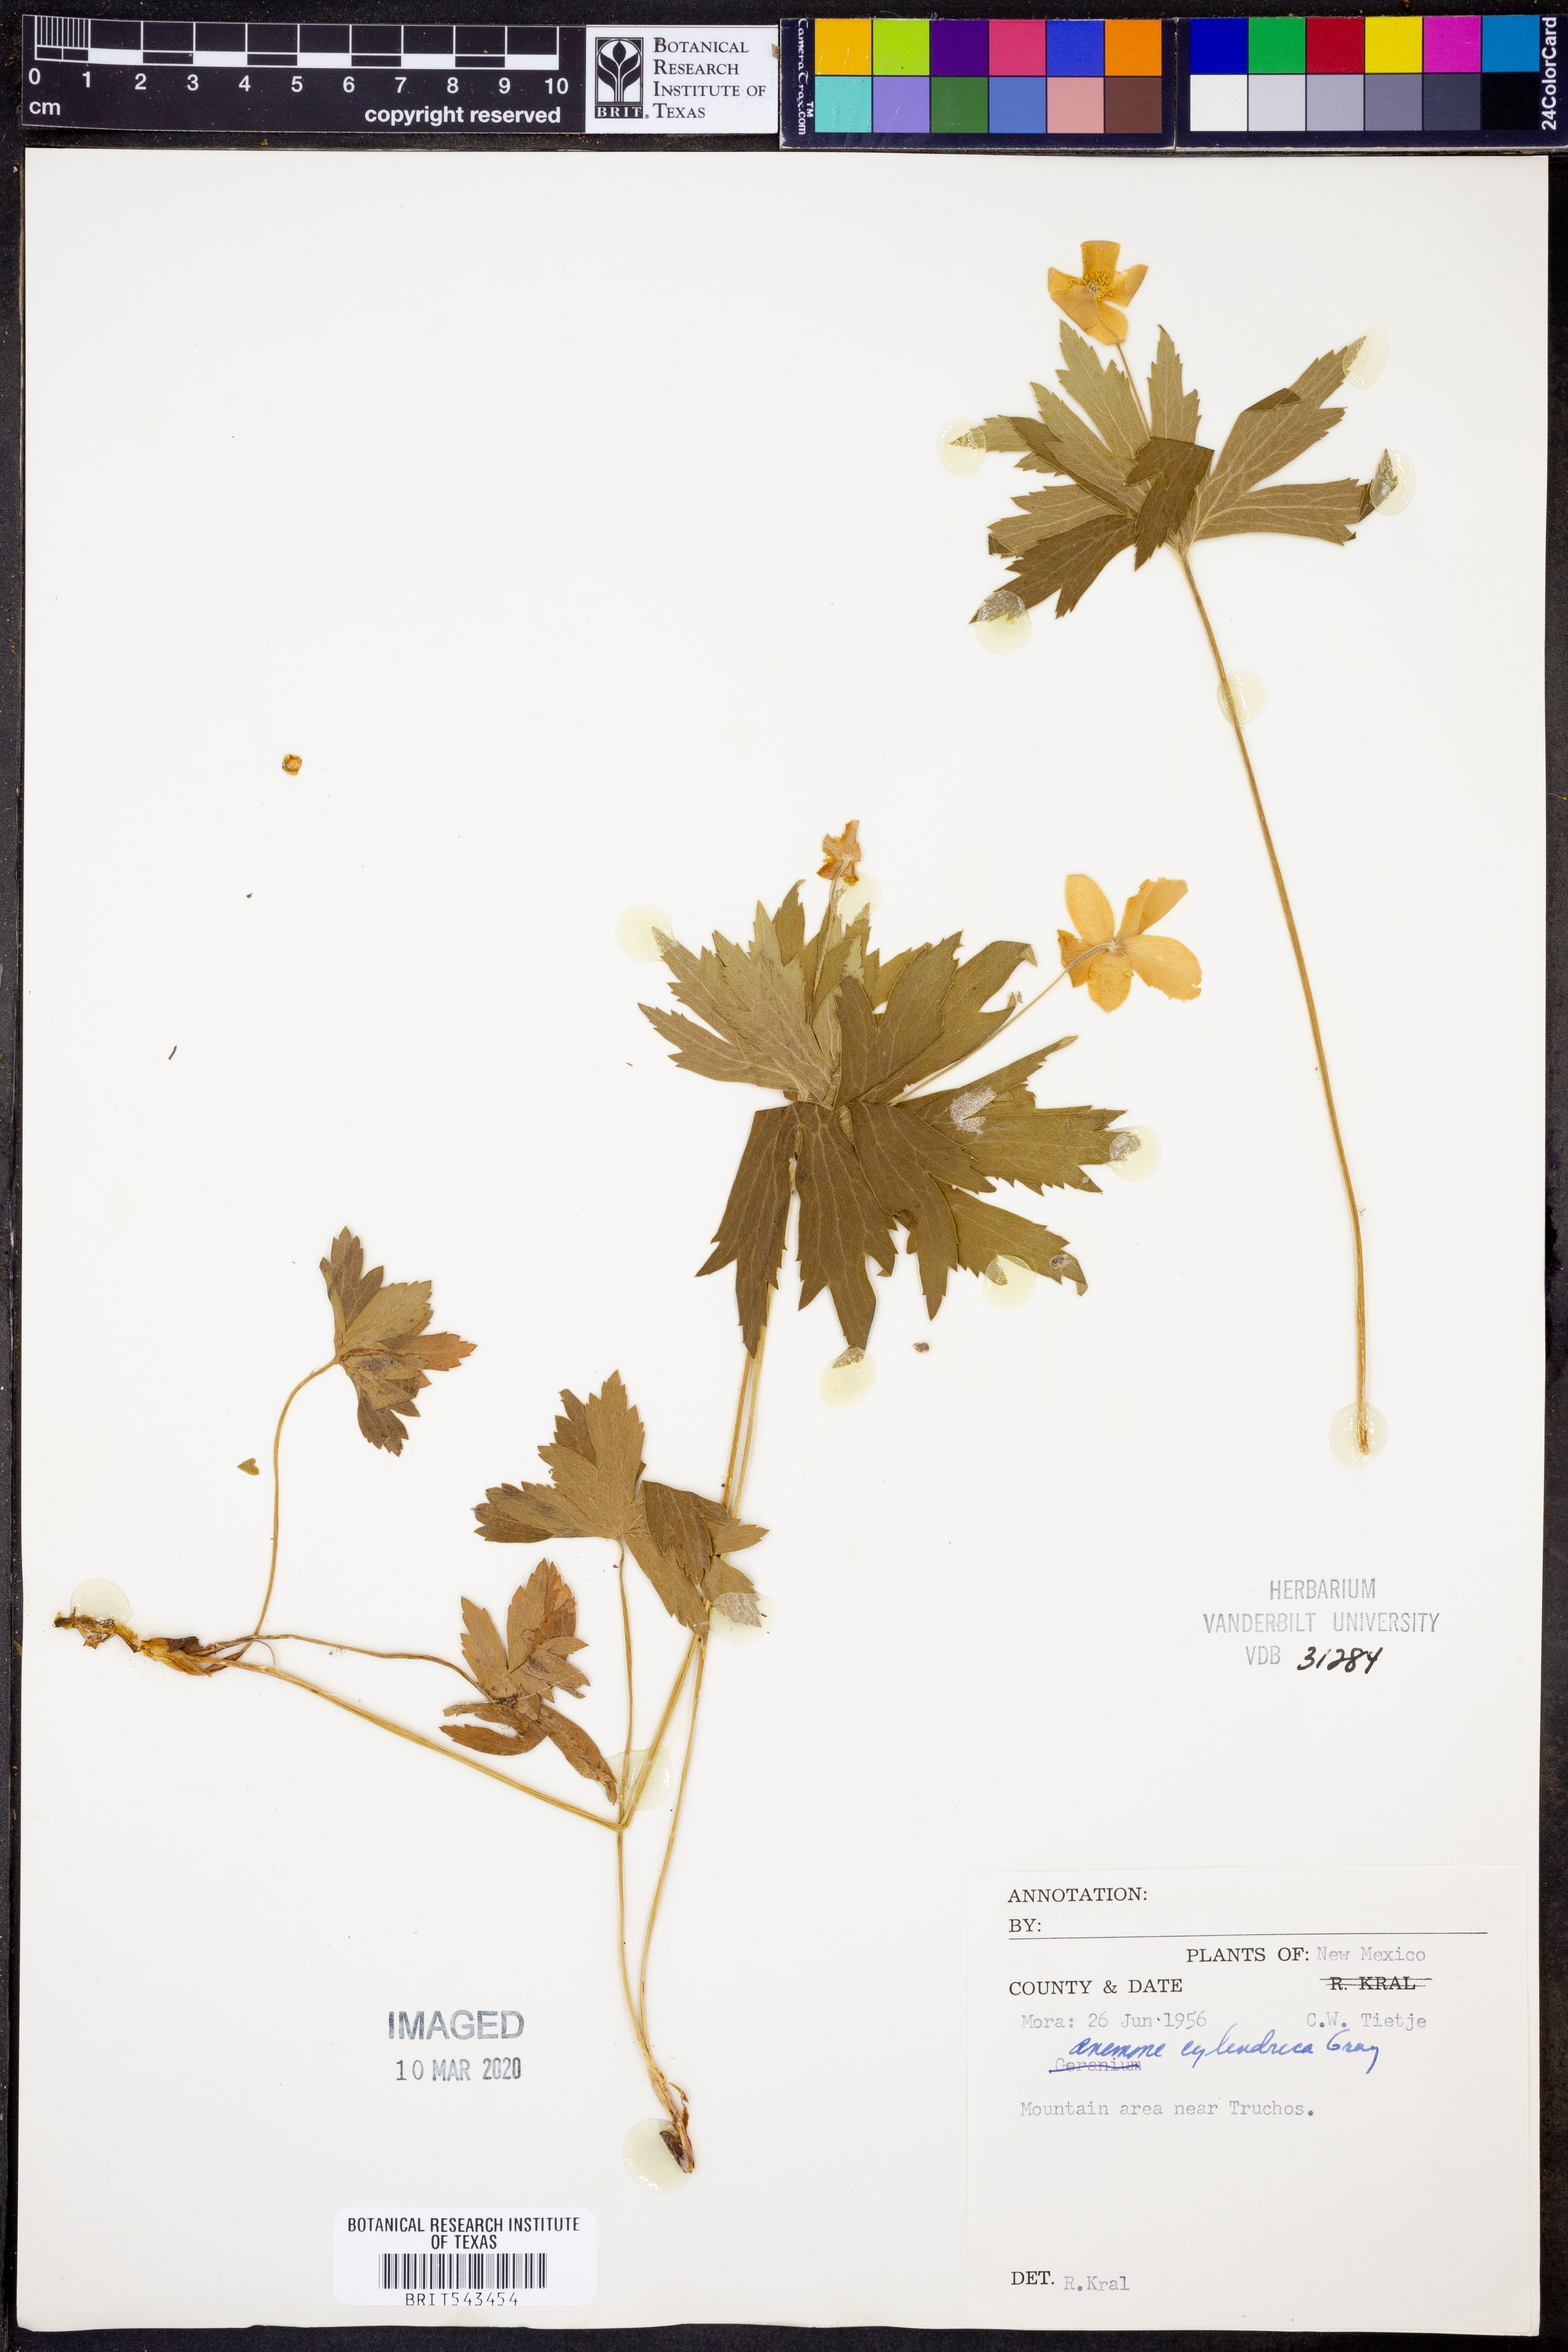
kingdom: Plantae
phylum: Tracheophyta
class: Magnoliopsida
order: Ranunculales
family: Ranunculaceae
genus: Anemone
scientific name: Anemone cylindrica
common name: Candle anemone
